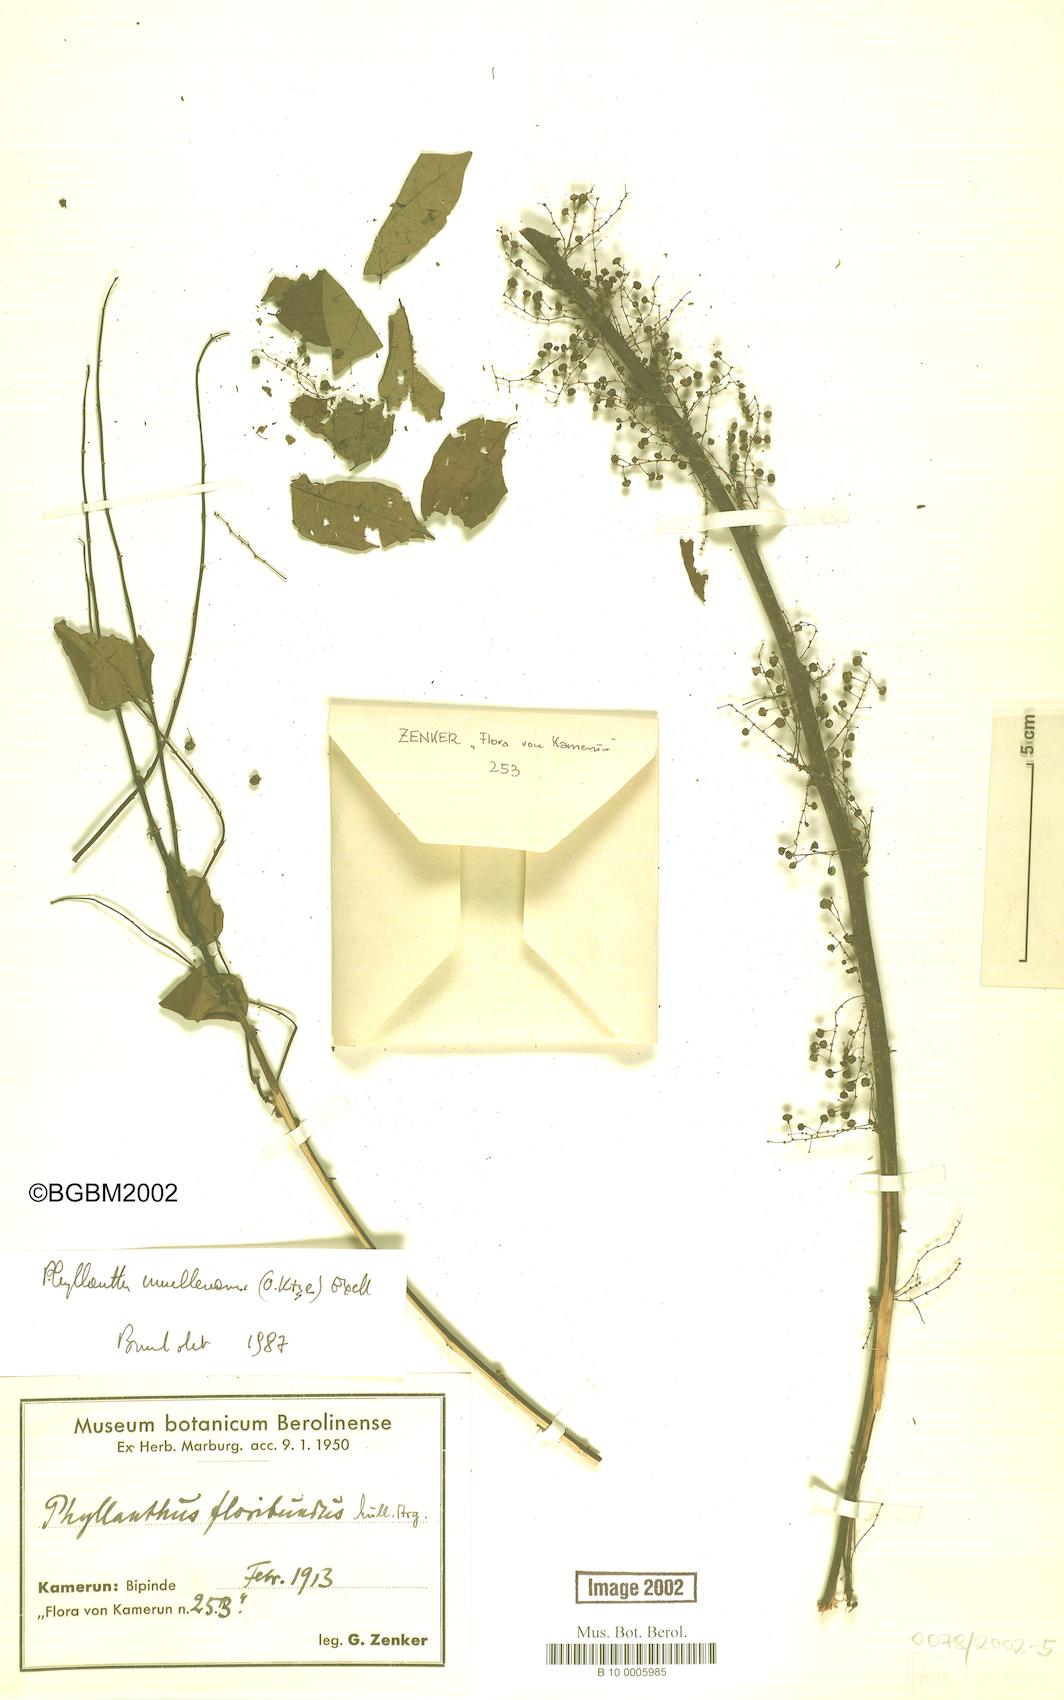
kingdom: Plantae
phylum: Tracheophyta
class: Magnoliopsida
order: Malpighiales
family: Phyllanthaceae
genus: Phyllanthus
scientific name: Phyllanthus muellerianus
